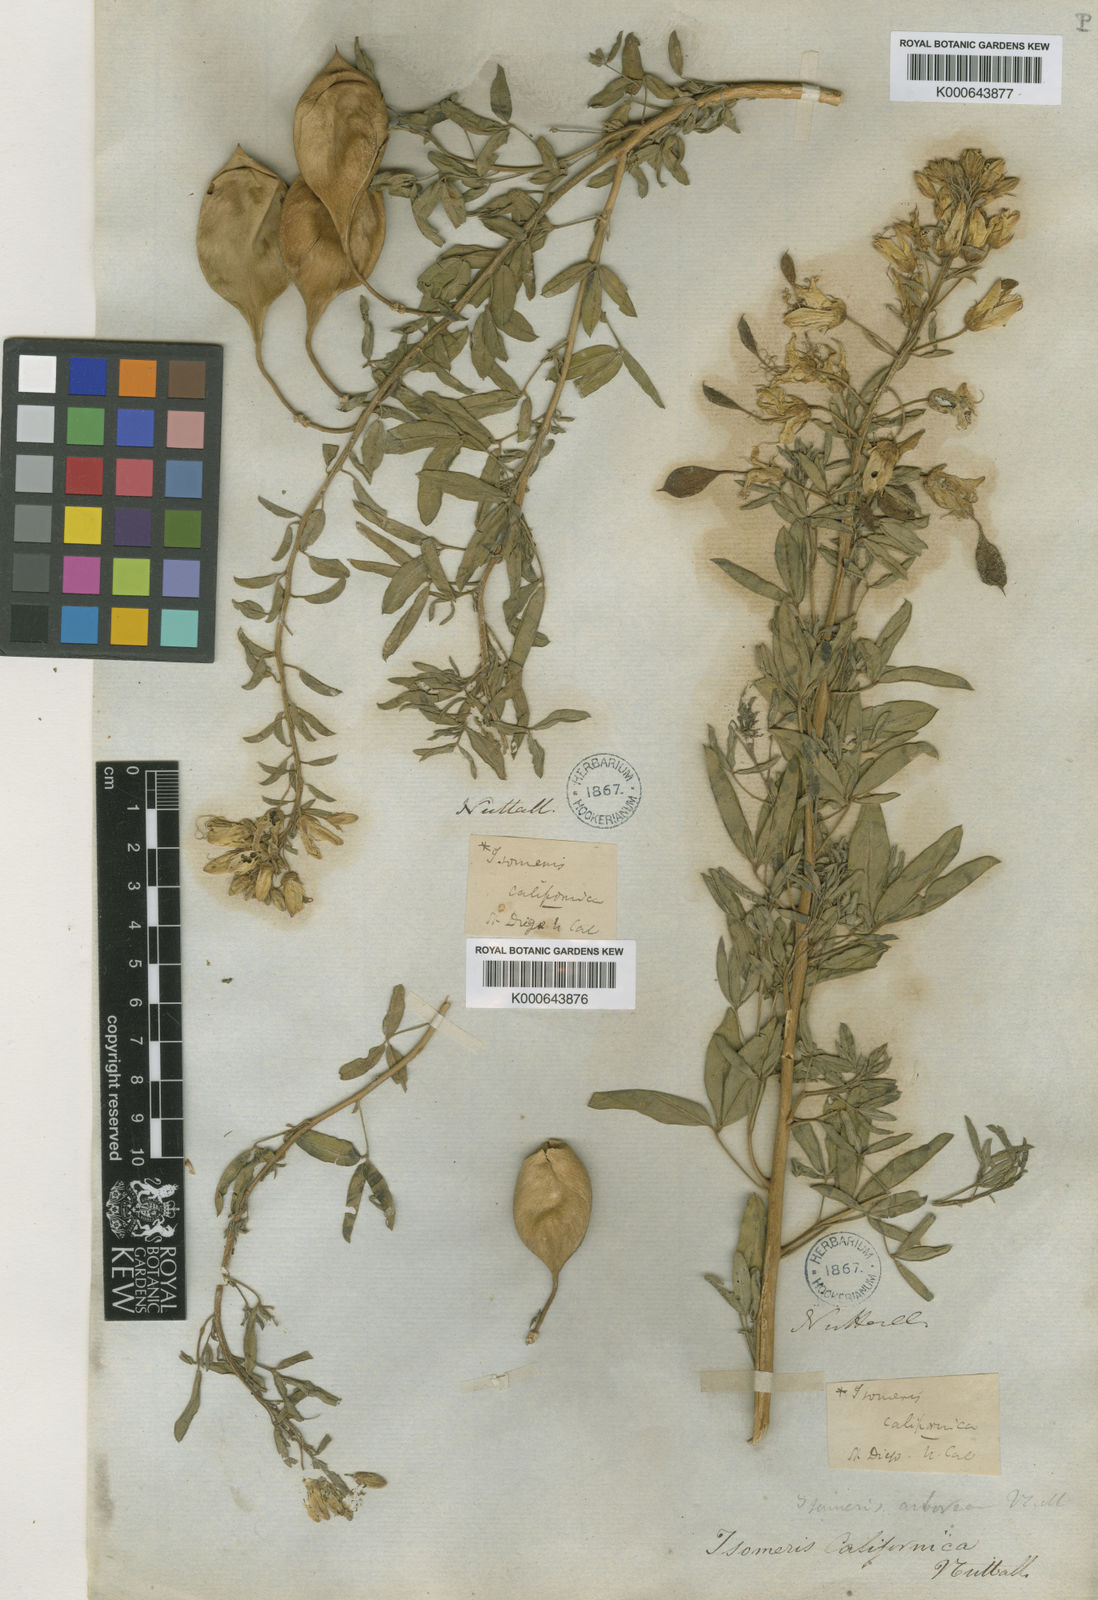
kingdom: Plantae
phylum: Charophyta
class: Charophyceae
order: Charales
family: Characeae
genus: Cristatella
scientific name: Cristatella
